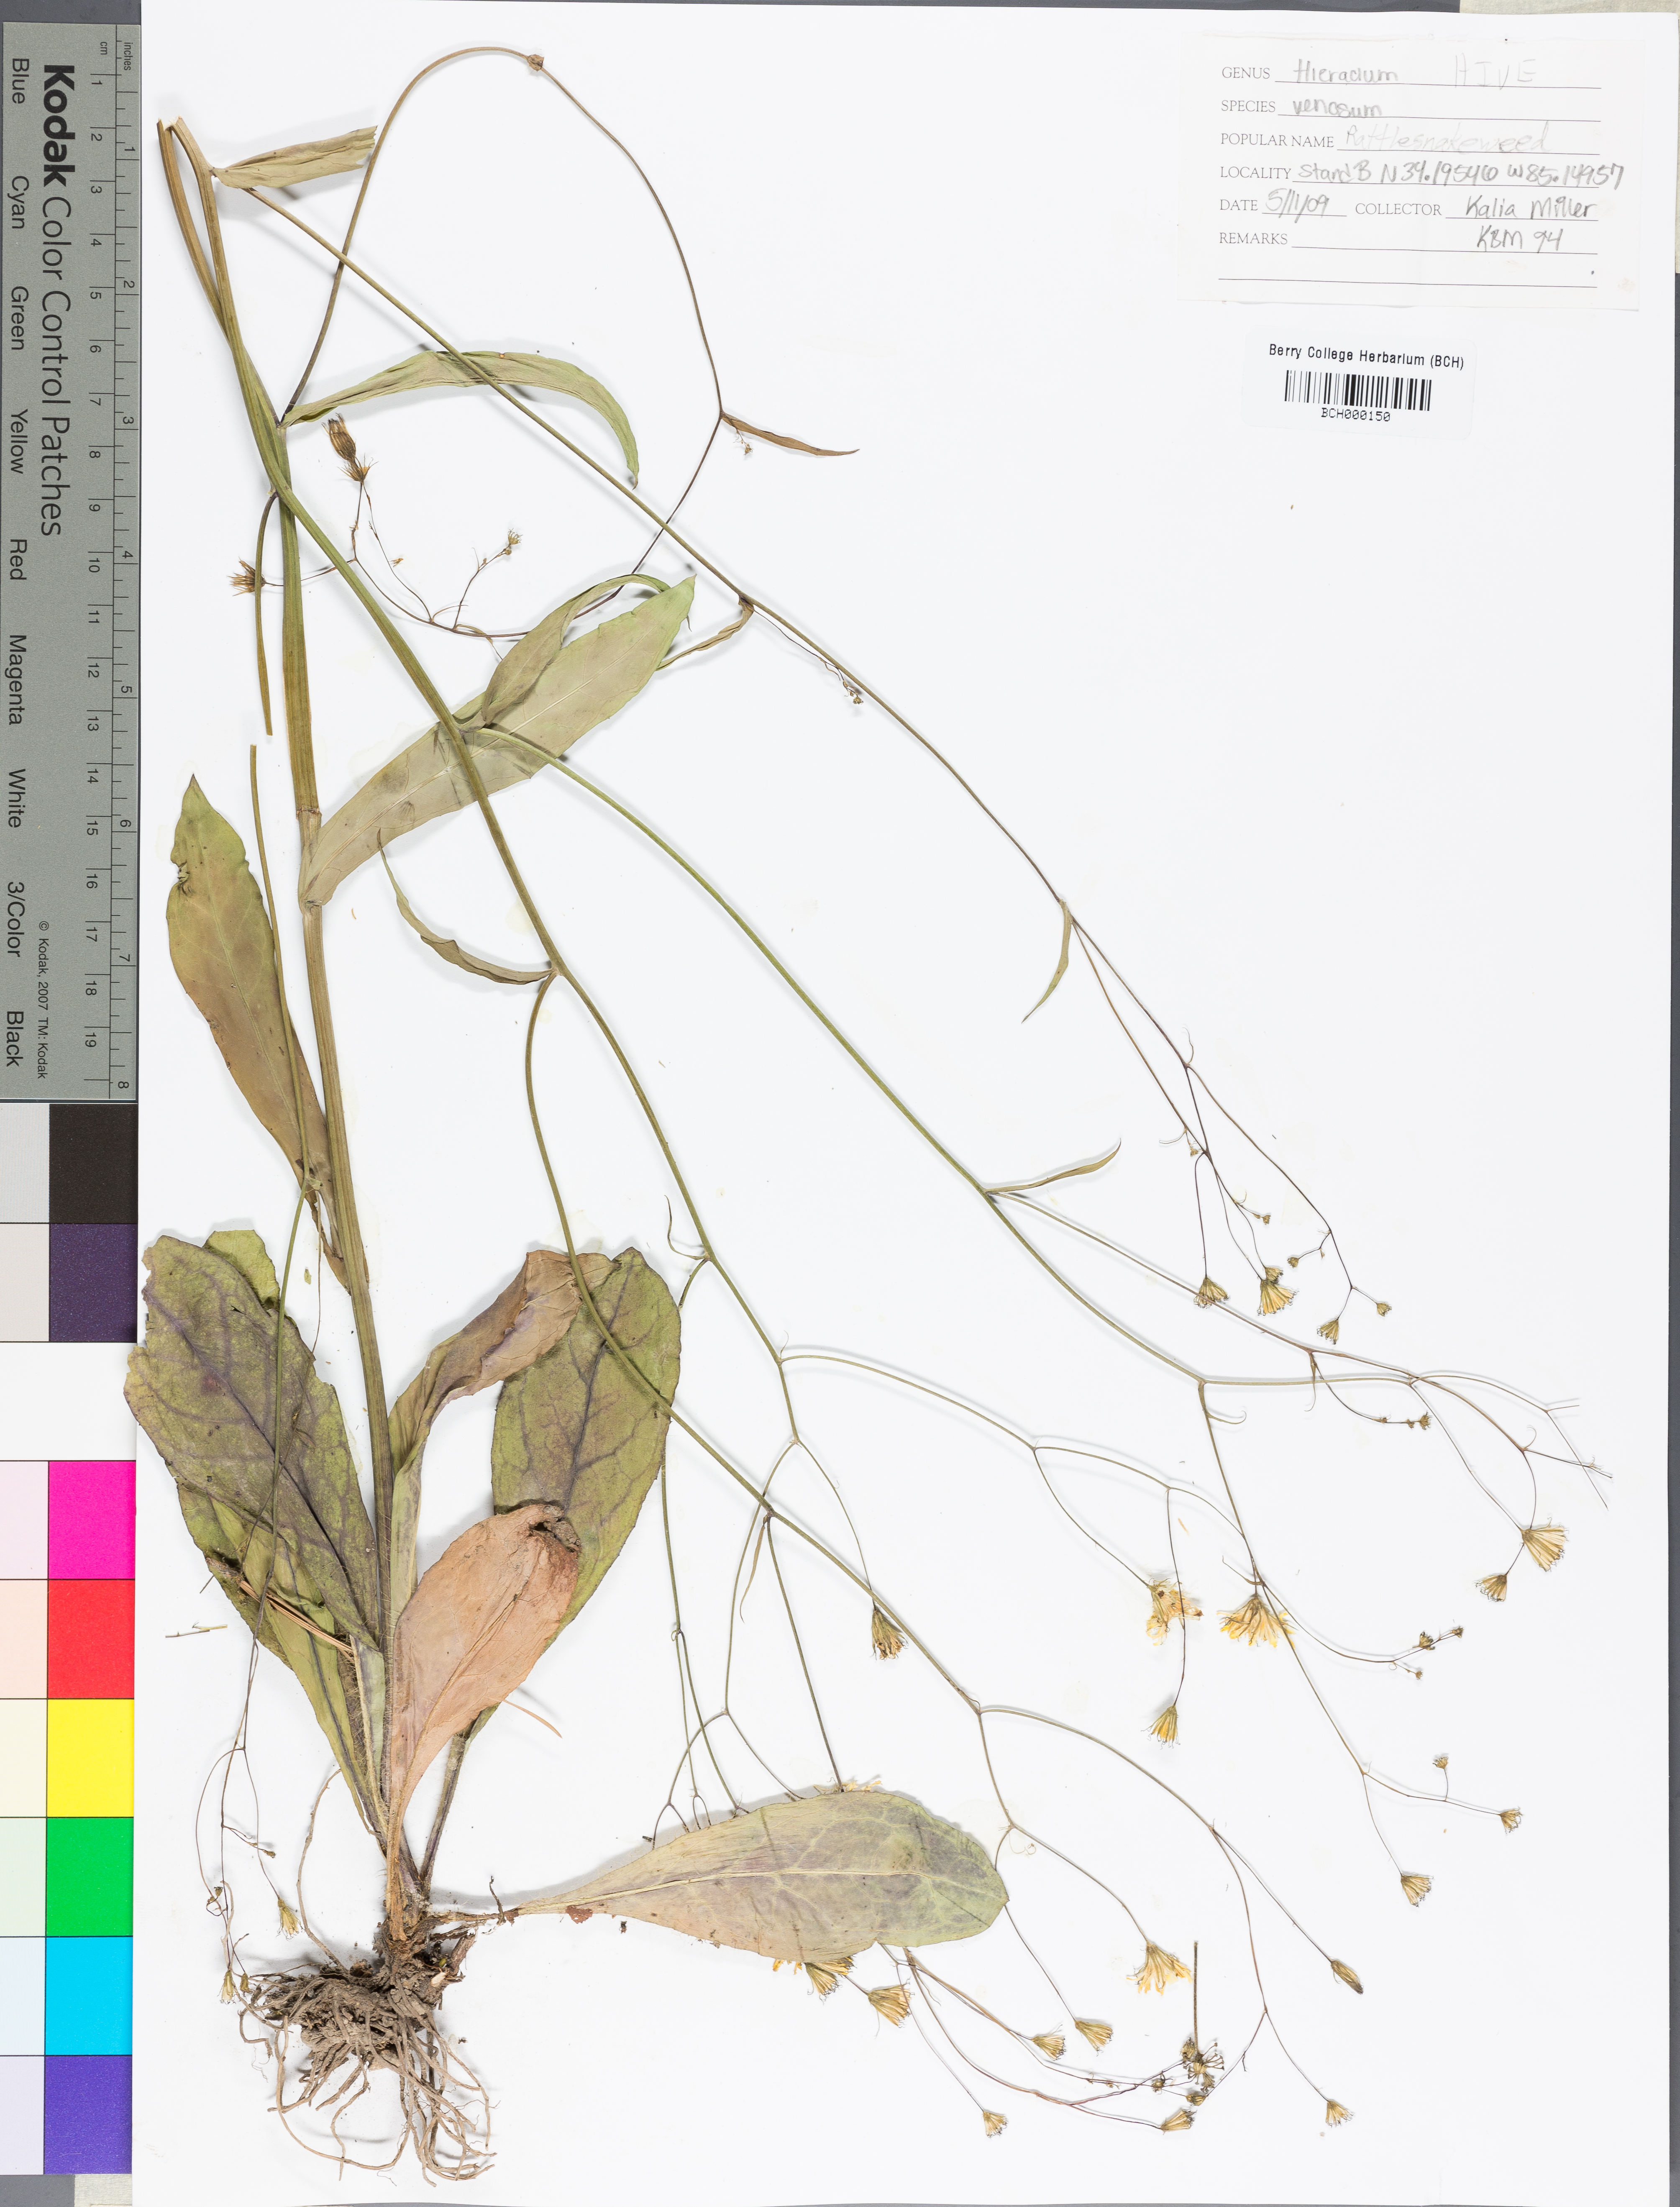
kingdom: Plantae
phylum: Tracheophyta
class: Magnoliopsida
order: Asterales
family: Asteraceae
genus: Hieracium
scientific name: Hieracium venosum
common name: Rattlesnake hawkweed
